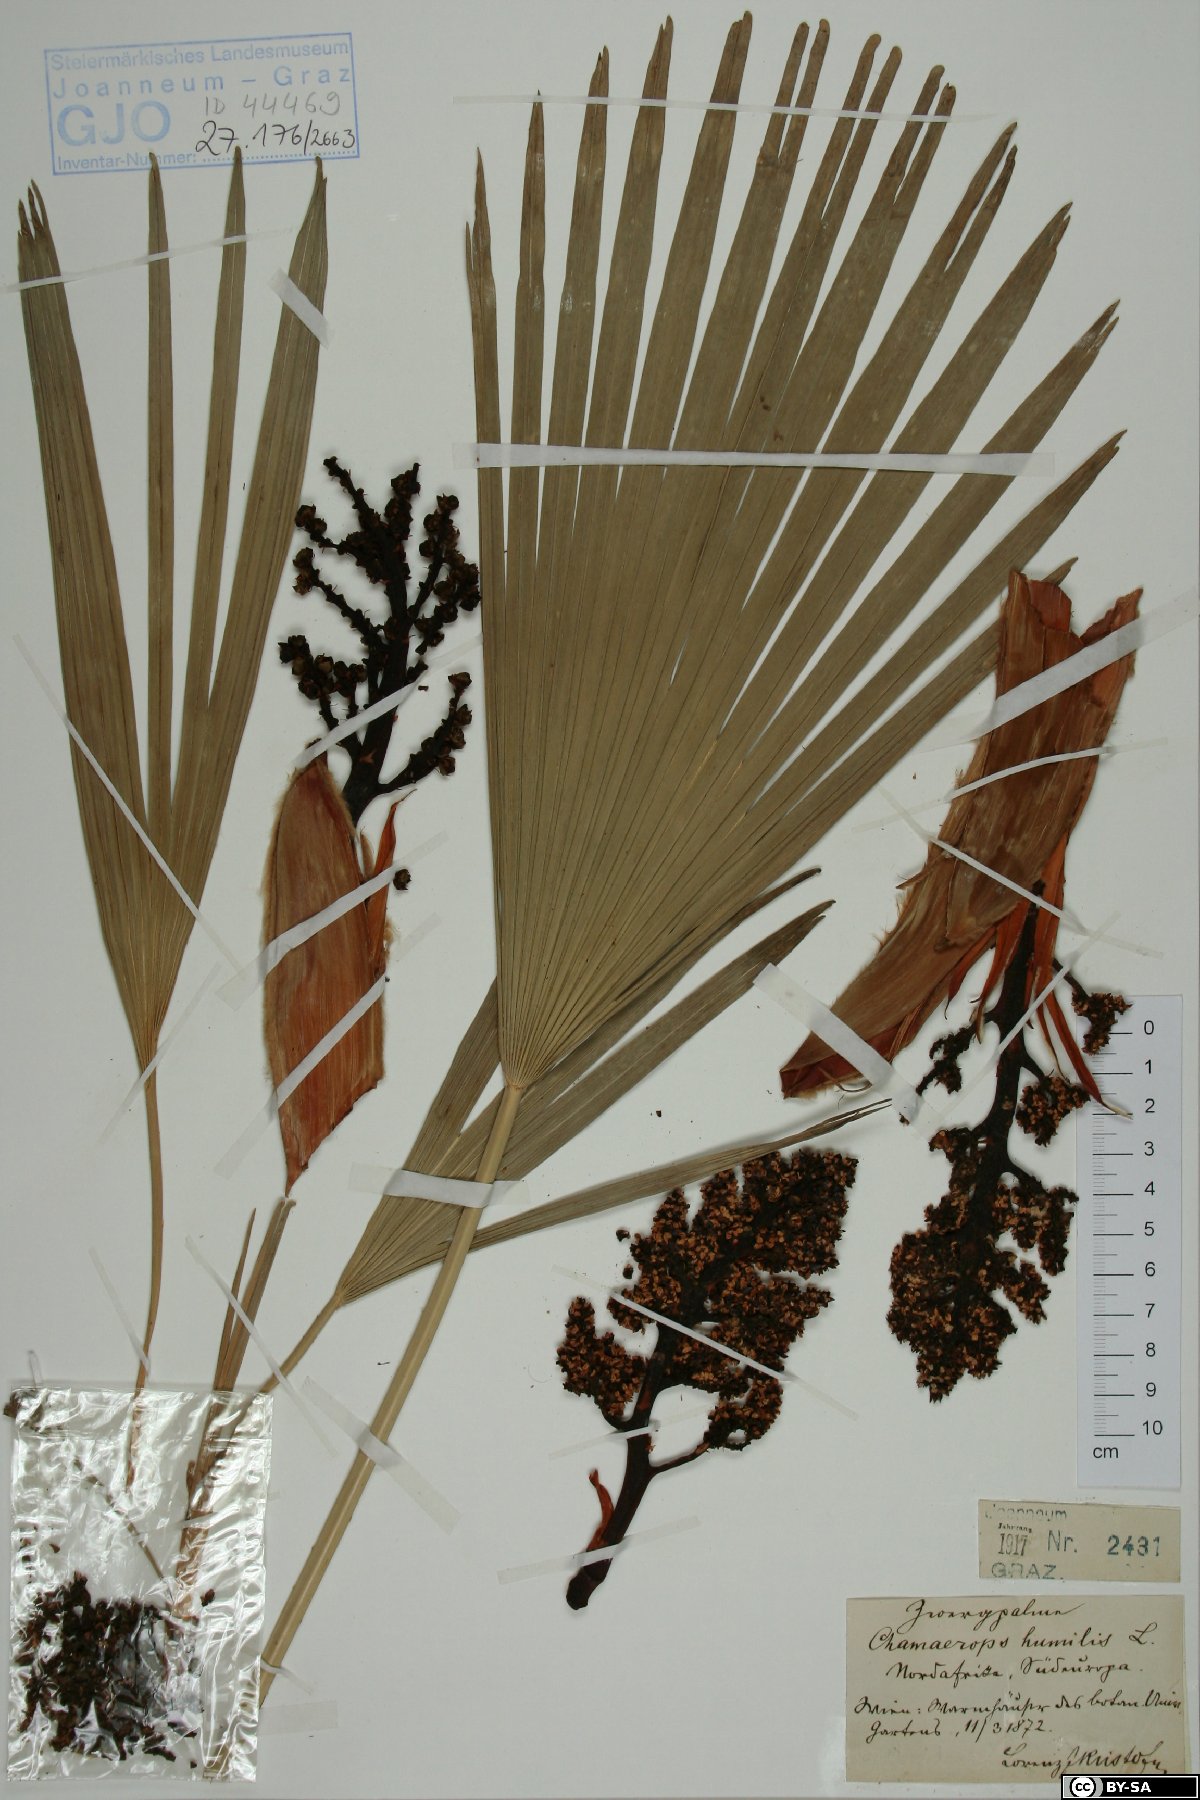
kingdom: Plantae
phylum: Tracheophyta
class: Liliopsida
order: Arecales
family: Arecaceae
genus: Chamaerops
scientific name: Chamaerops humilis
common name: Dwarf fan palm
